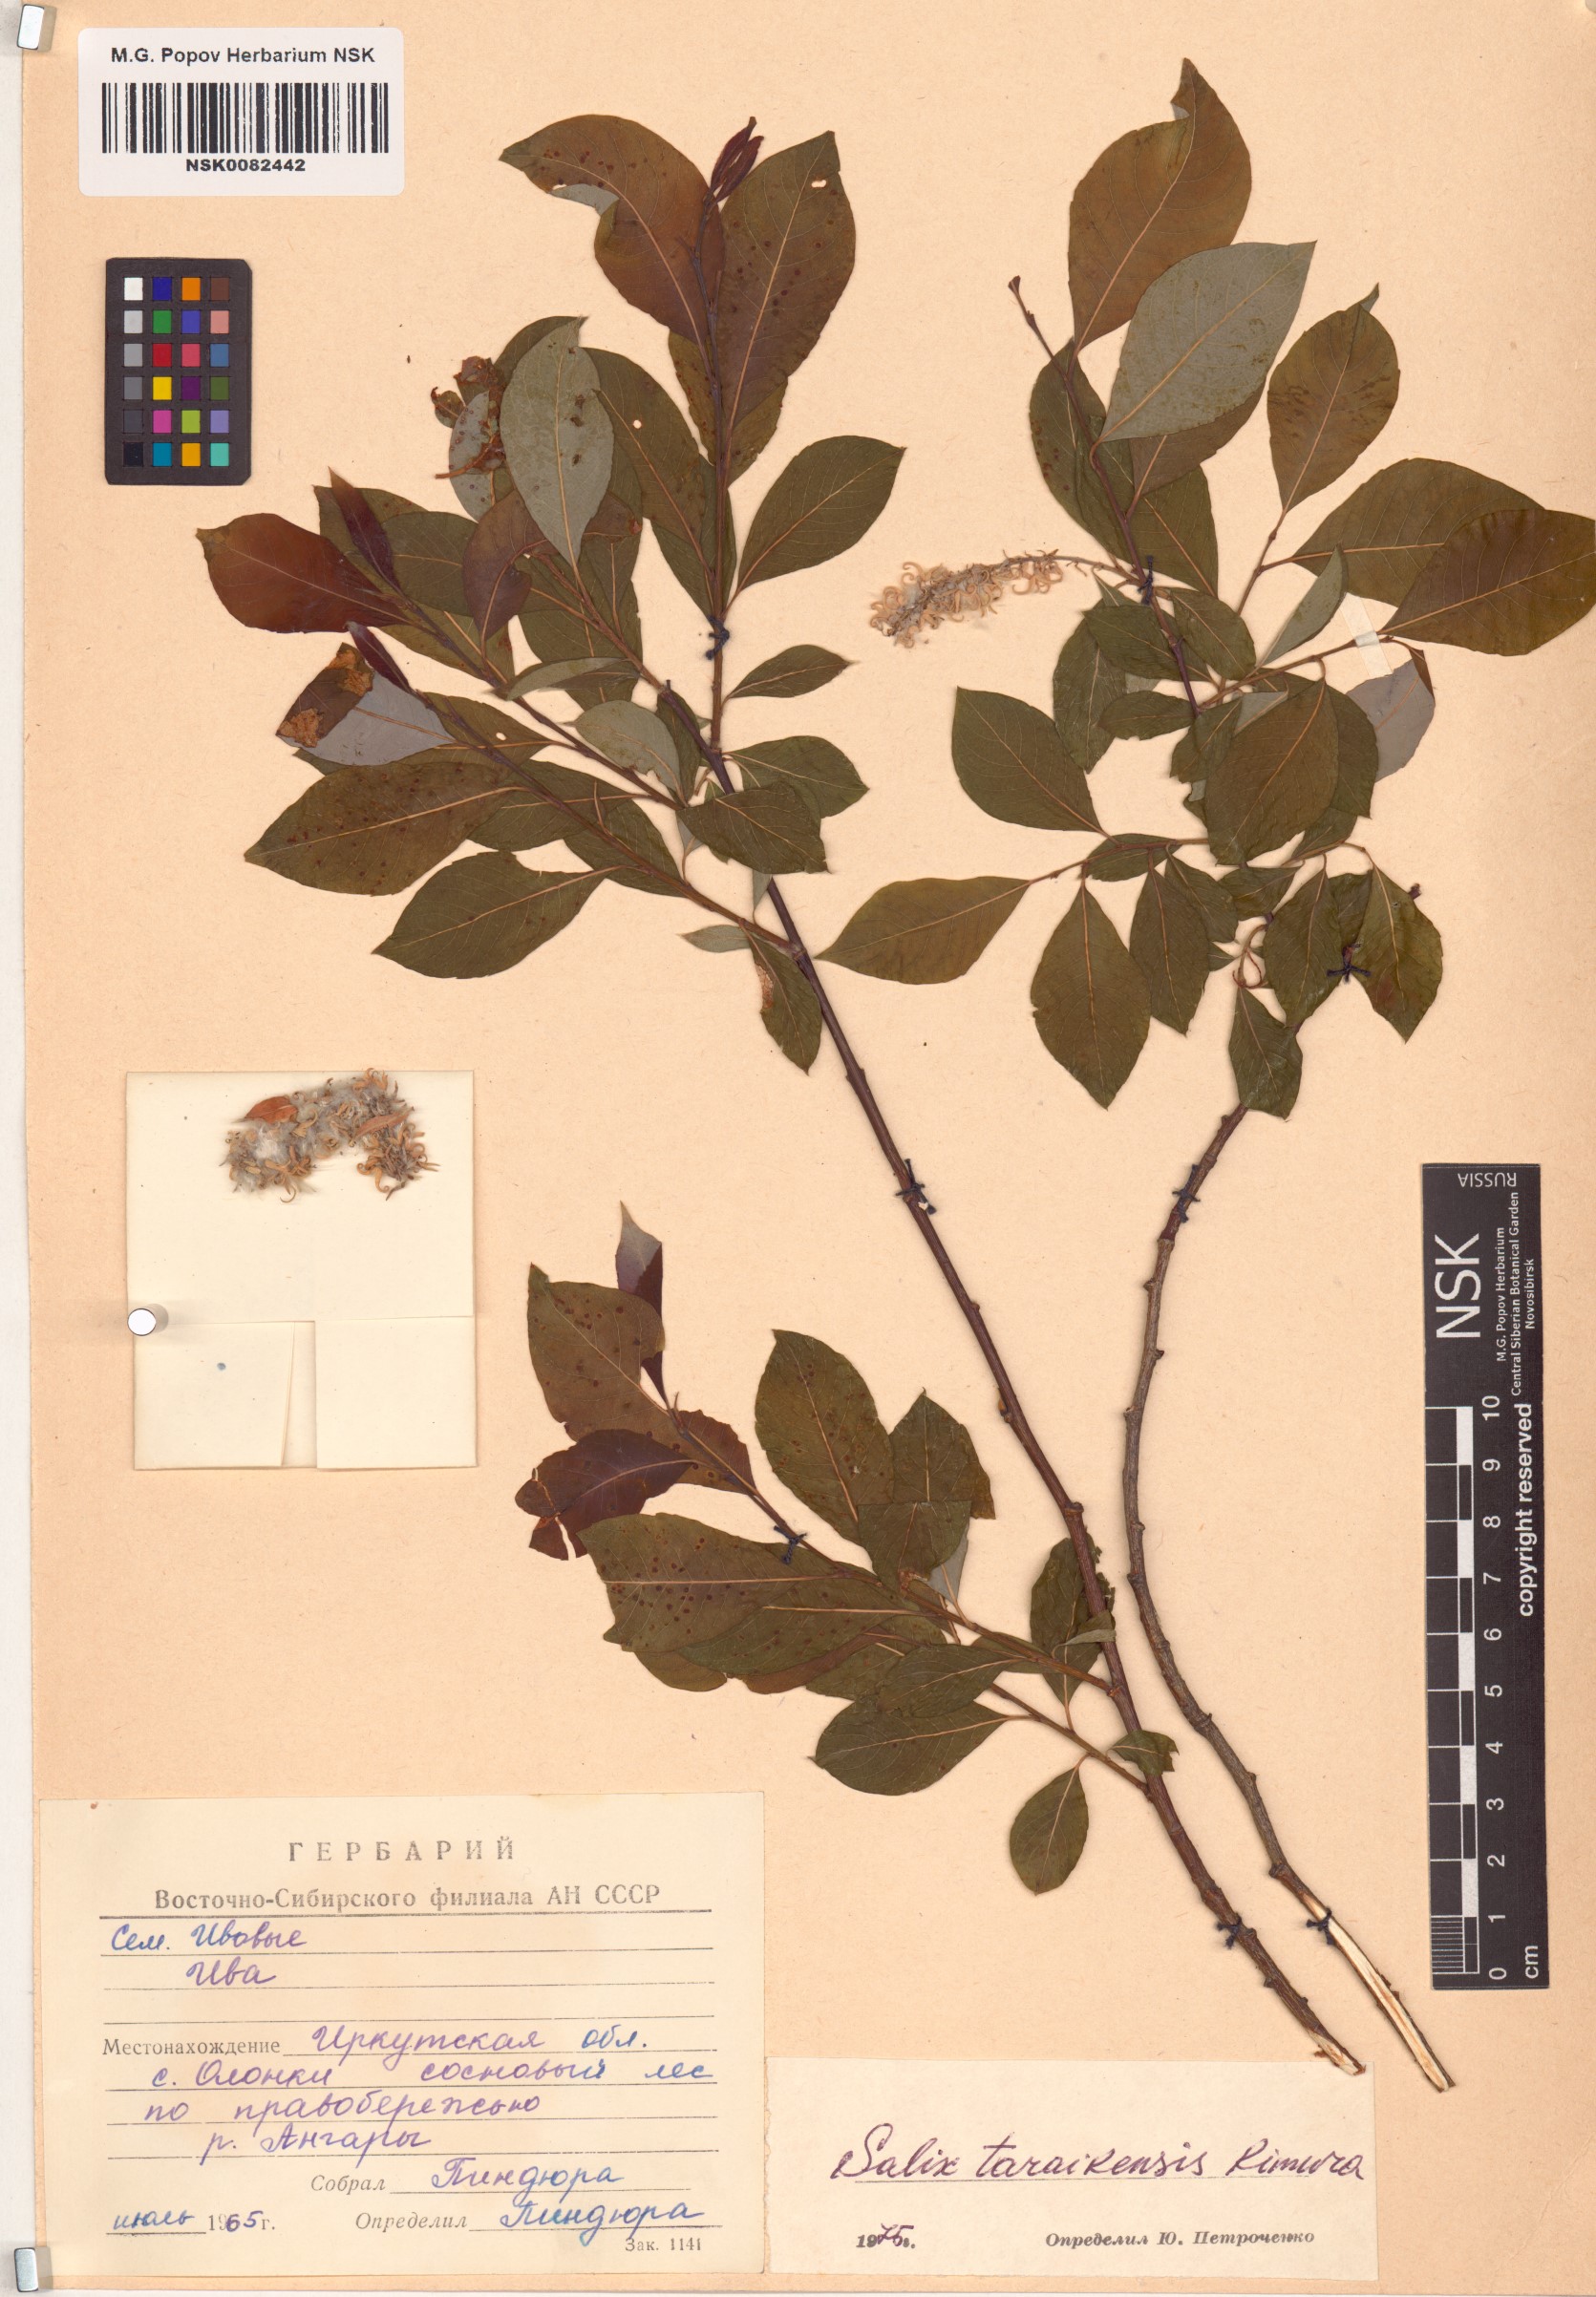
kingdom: Plantae
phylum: Tracheophyta
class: Magnoliopsida
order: Malpighiales
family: Salicaceae
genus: Salix
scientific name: Salix taraikensis
